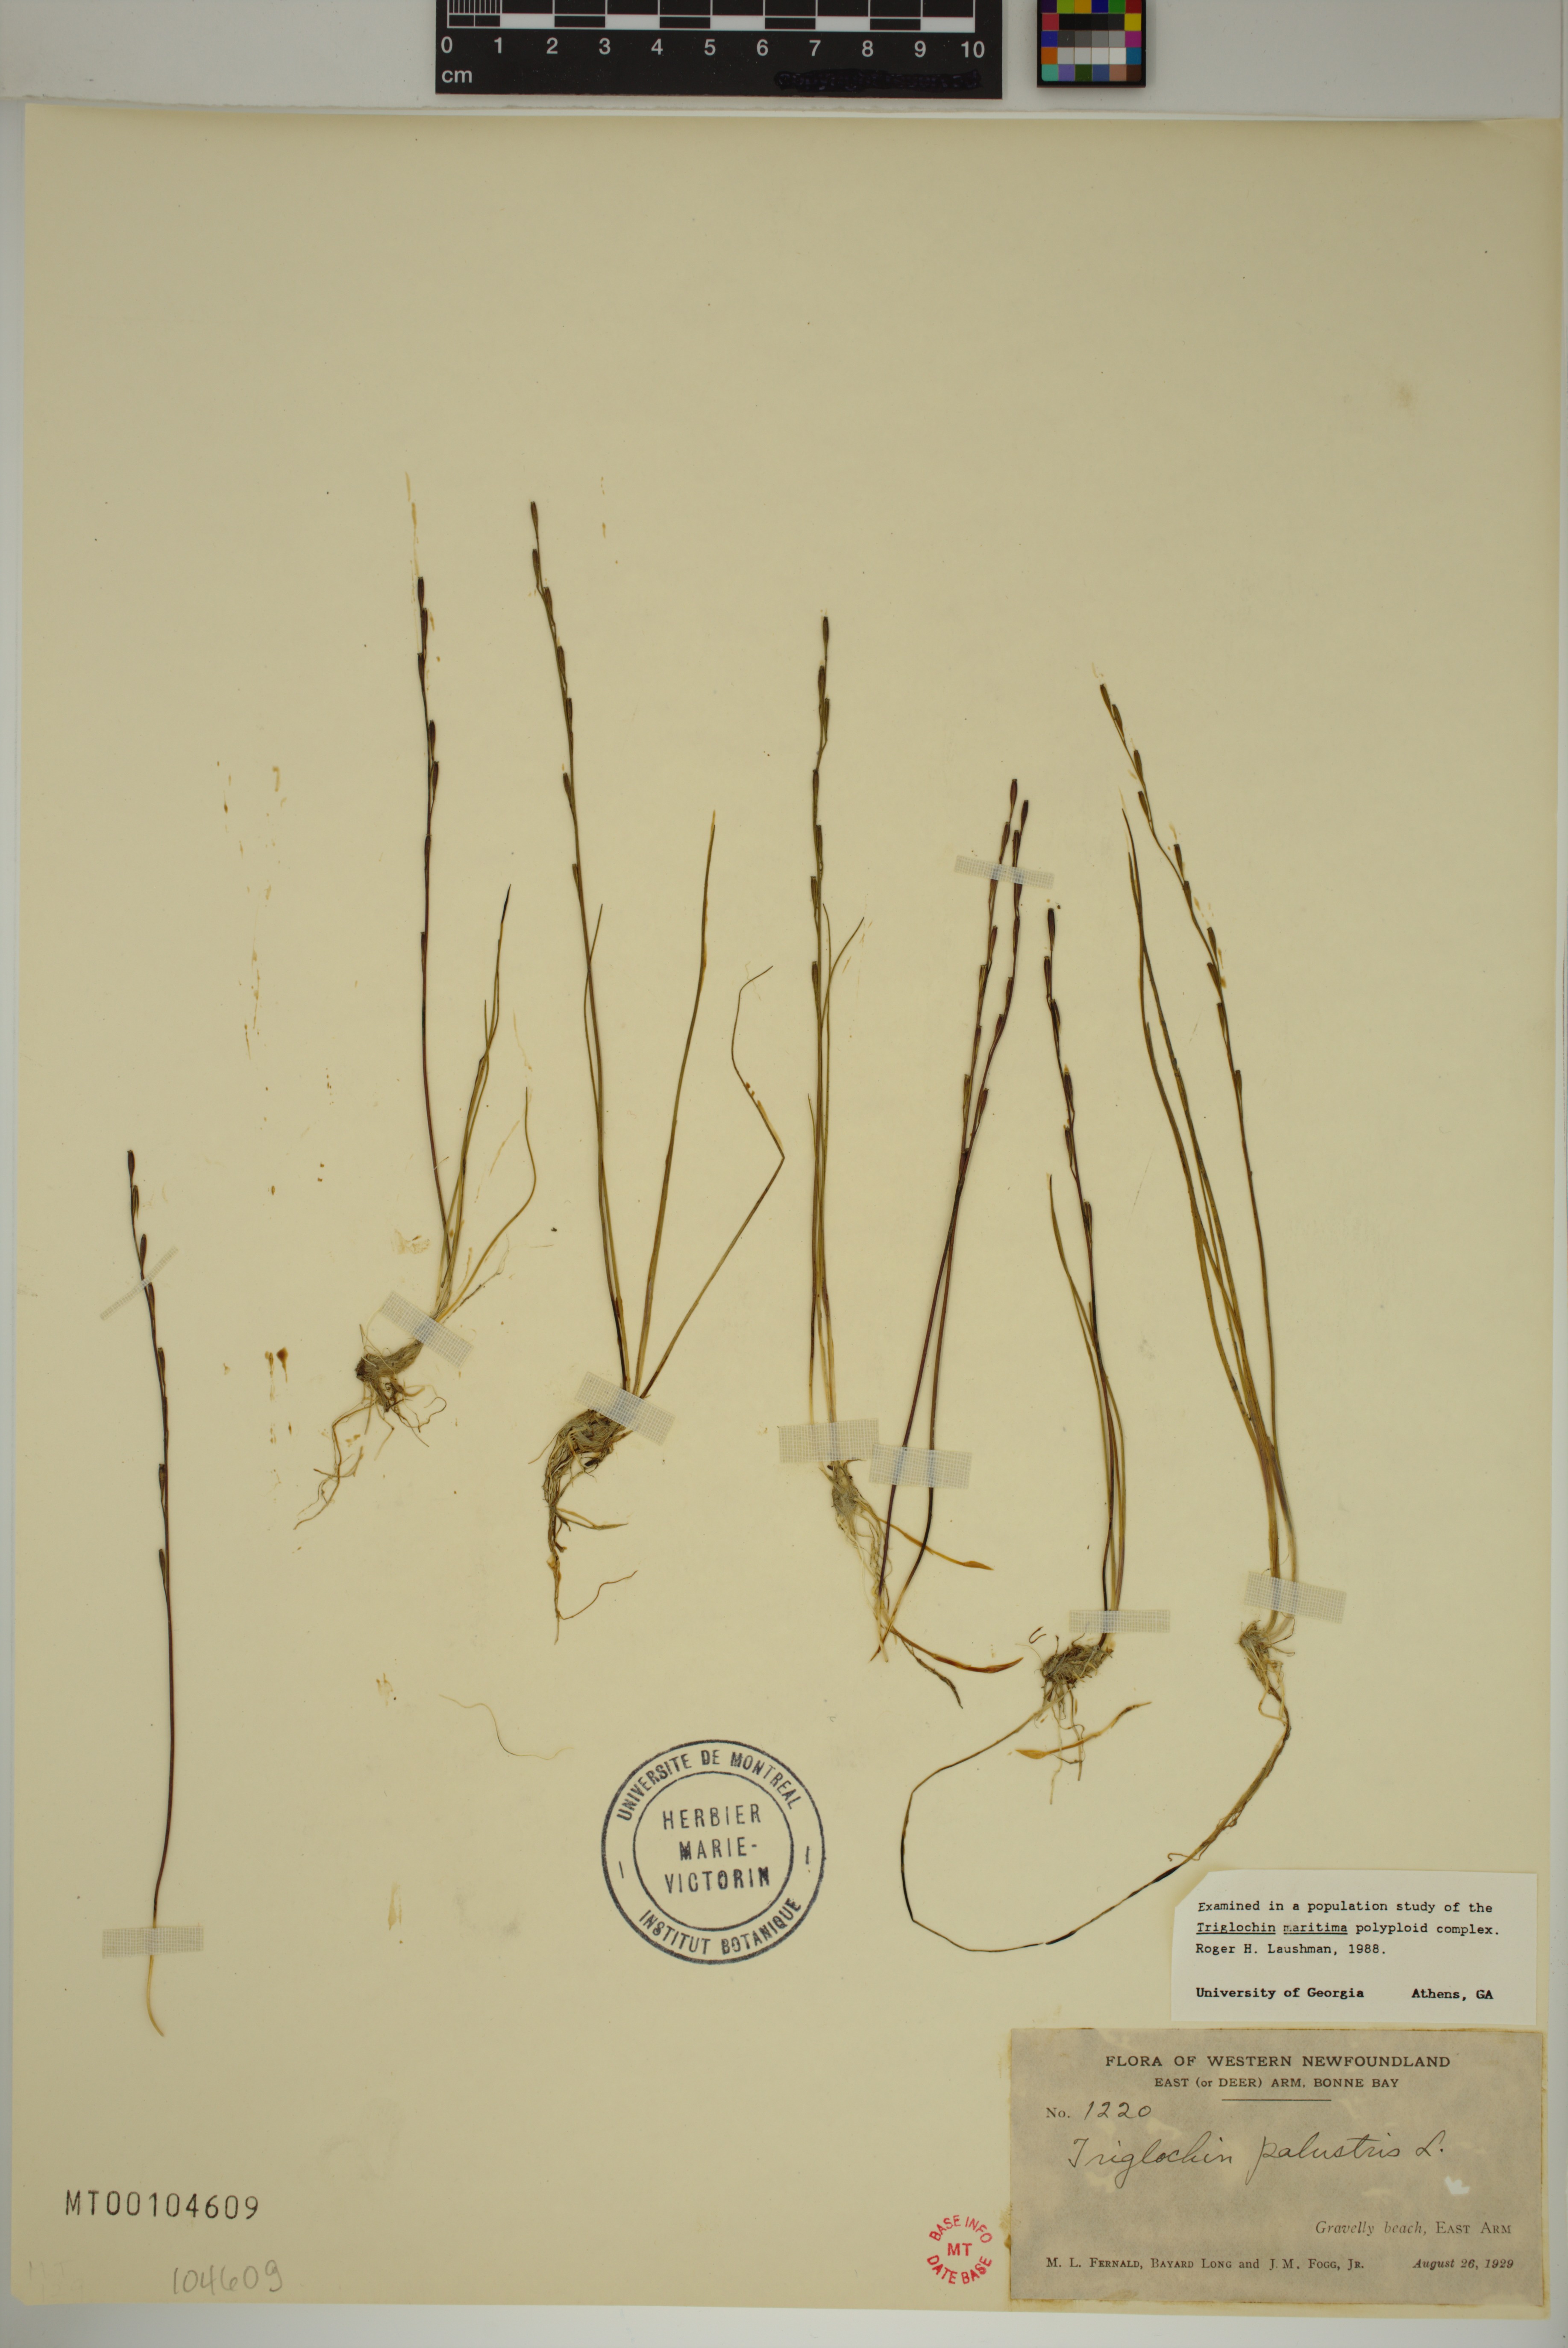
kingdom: Plantae
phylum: Tracheophyta
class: Liliopsida
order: Alismatales
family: Juncaginaceae
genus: Triglochin
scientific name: Triglochin palustris
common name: Marsh arrowgrass
